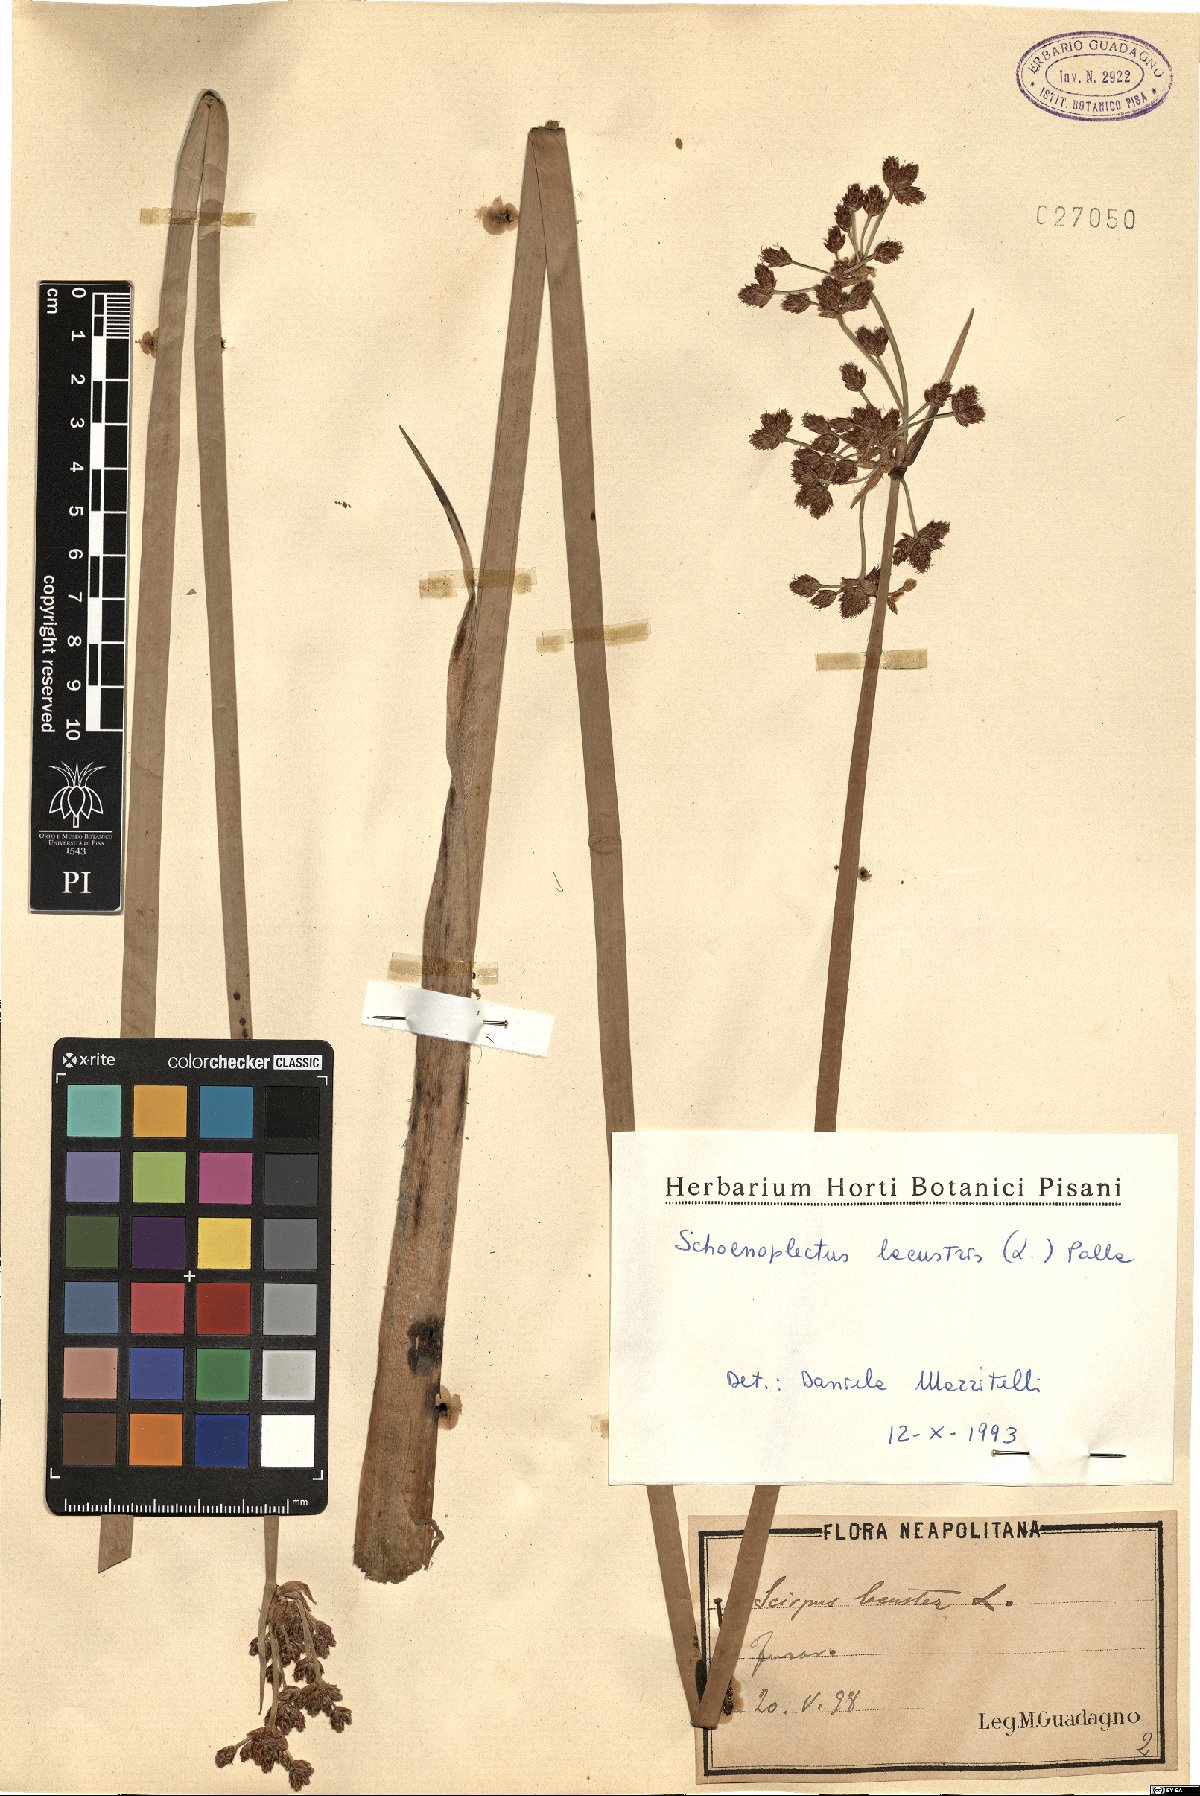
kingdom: Plantae
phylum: Tracheophyta
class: Liliopsida
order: Poales
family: Cyperaceae
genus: Schoenoplectus
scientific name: Schoenoplectus lacustris
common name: Common club-rush
